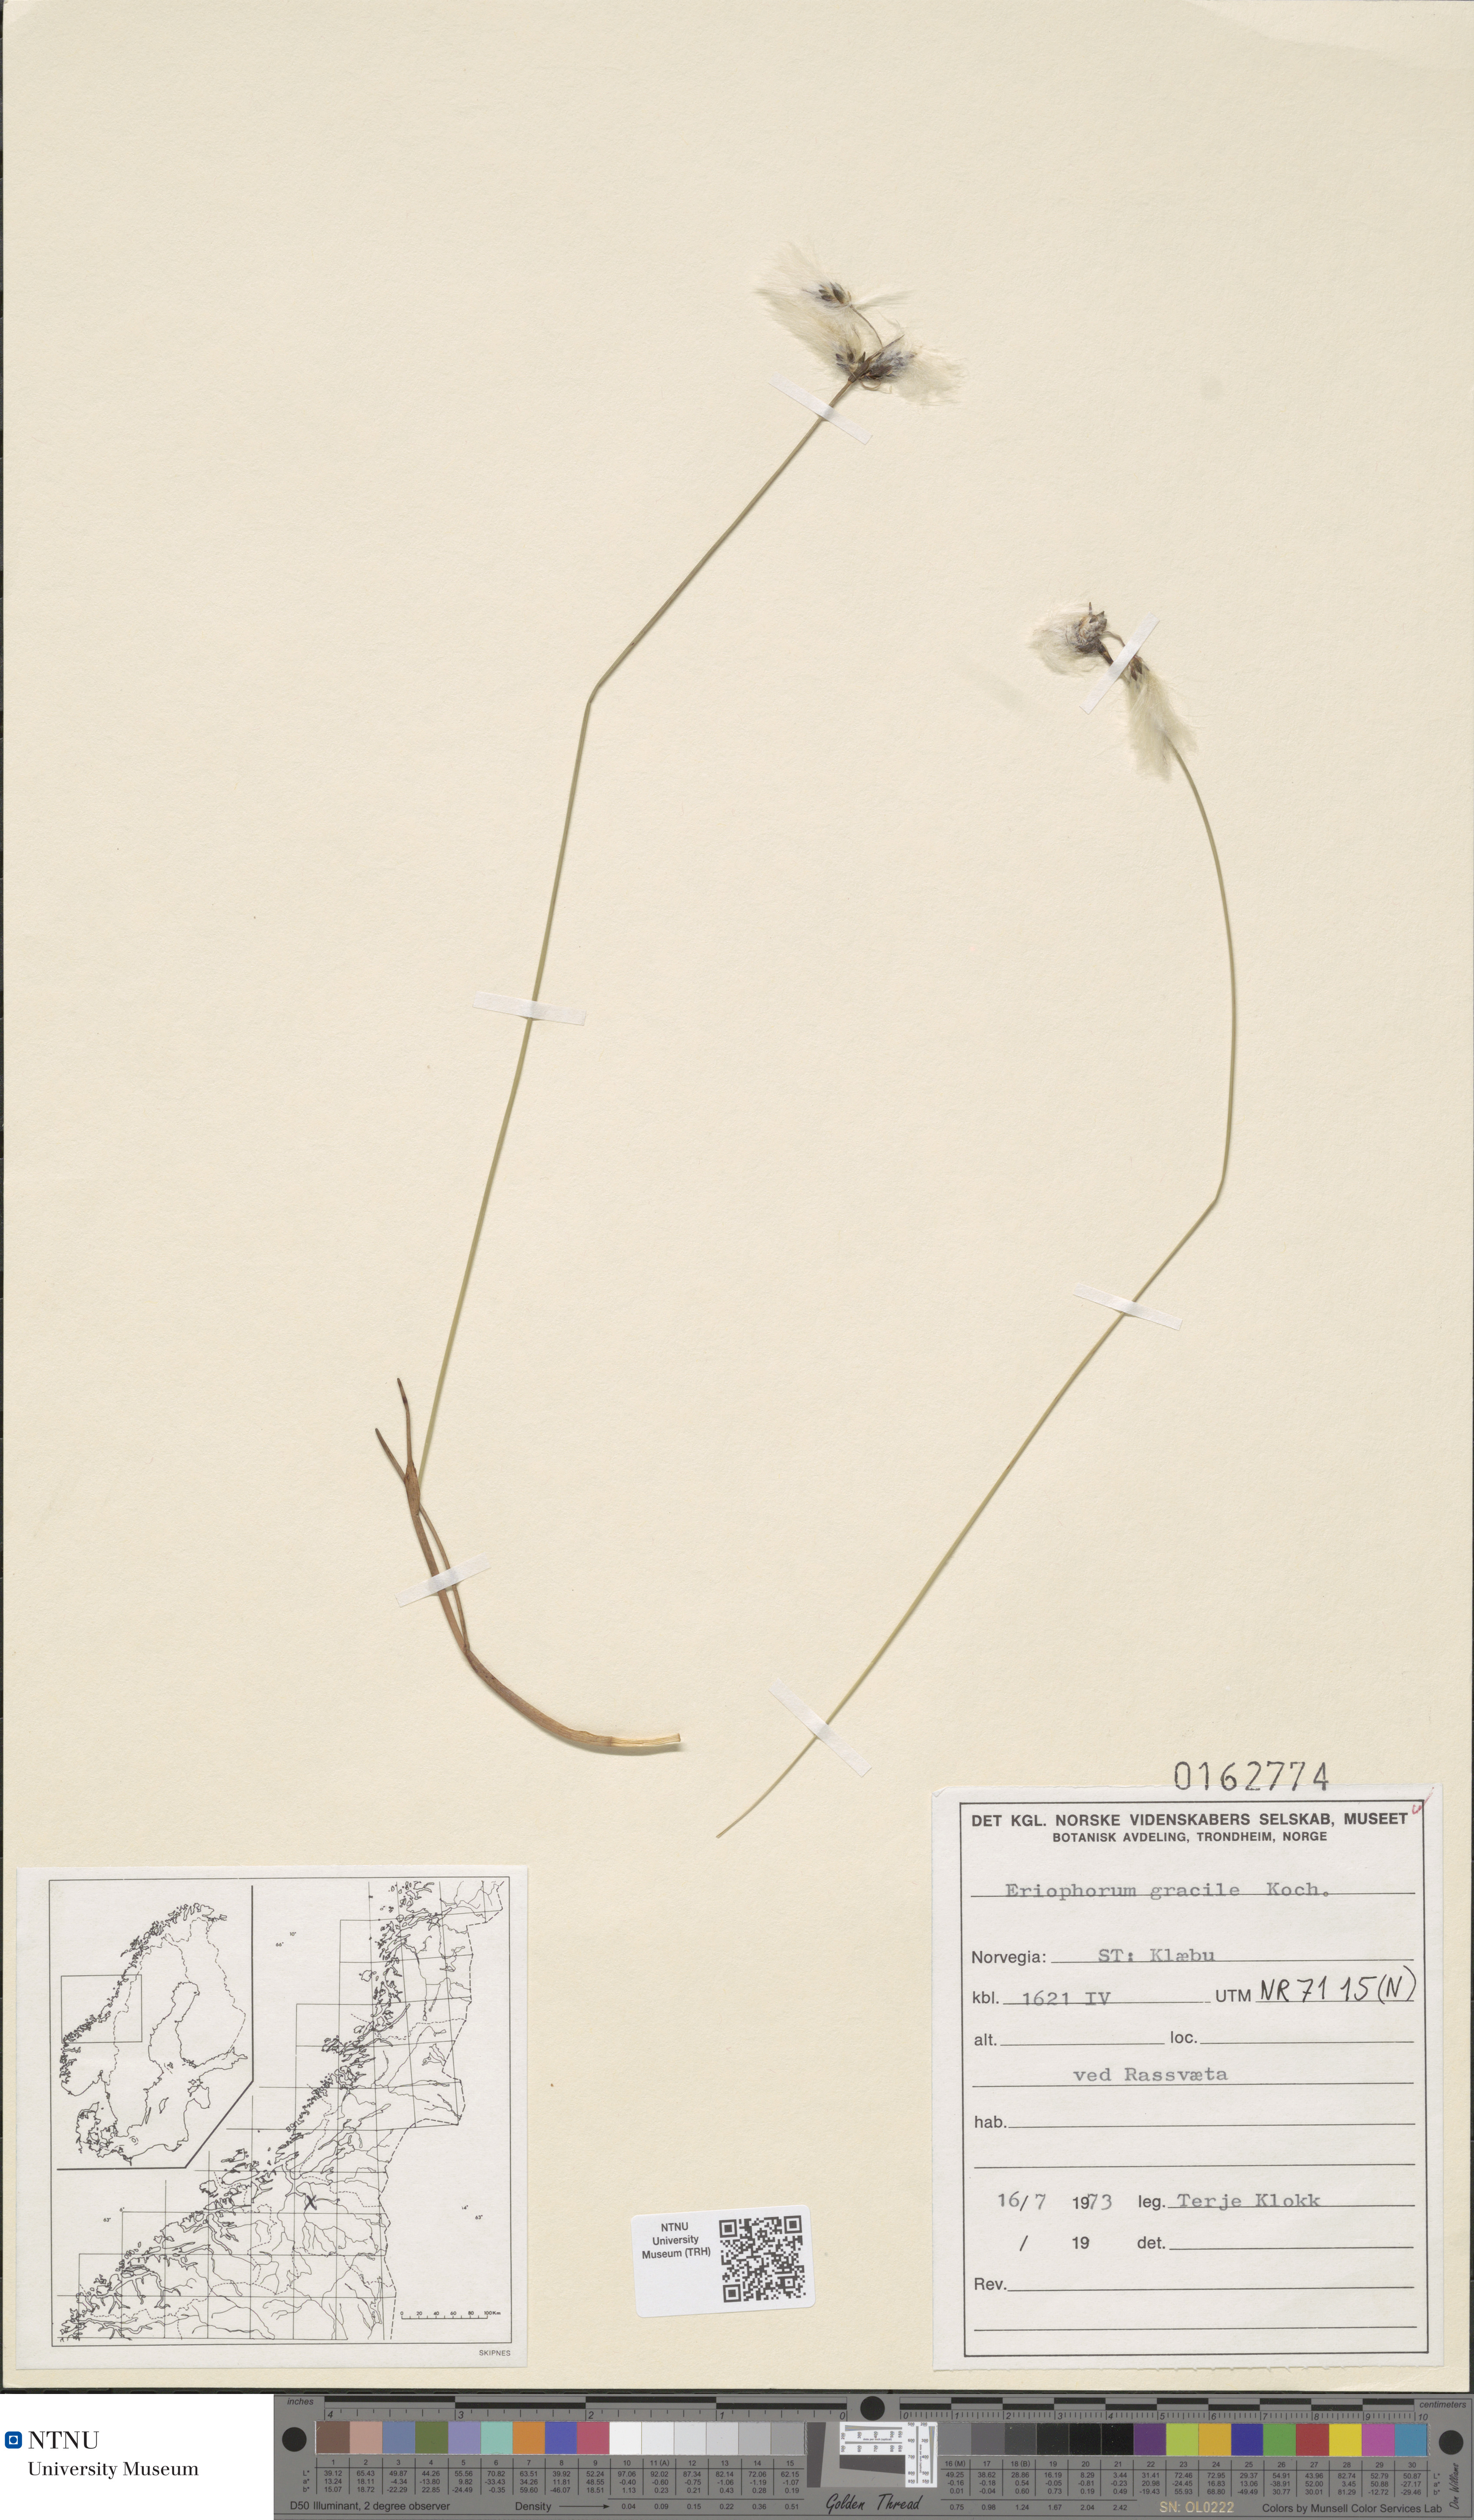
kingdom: Plantae
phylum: Tracheophyta
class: Liliopsida
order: Poales
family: Cyperaceae
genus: Eriophorum
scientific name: Eriophorum gracile
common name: Slender cottongrass
